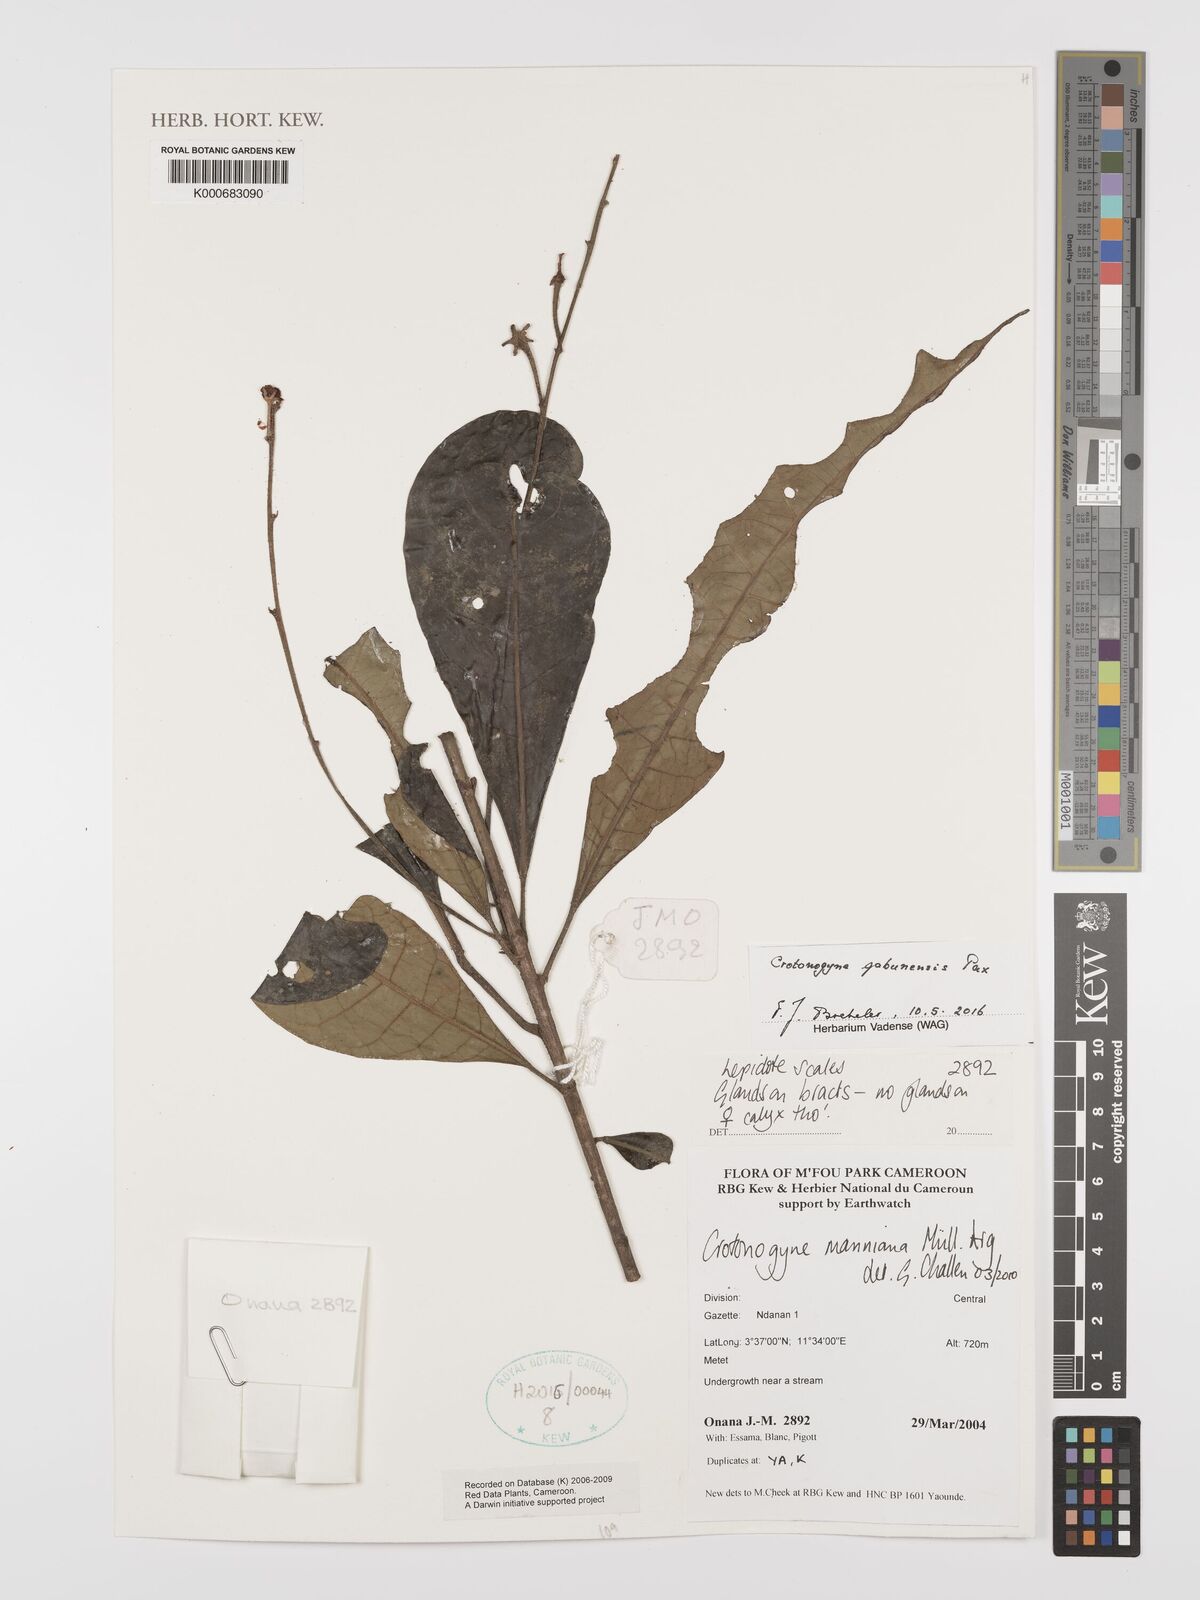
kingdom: Plantae
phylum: Tracheophyta
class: Magnoliopsida
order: Malpighiales
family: Euphorbiaceae
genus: Crotonogyne
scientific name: Crotonogyne
